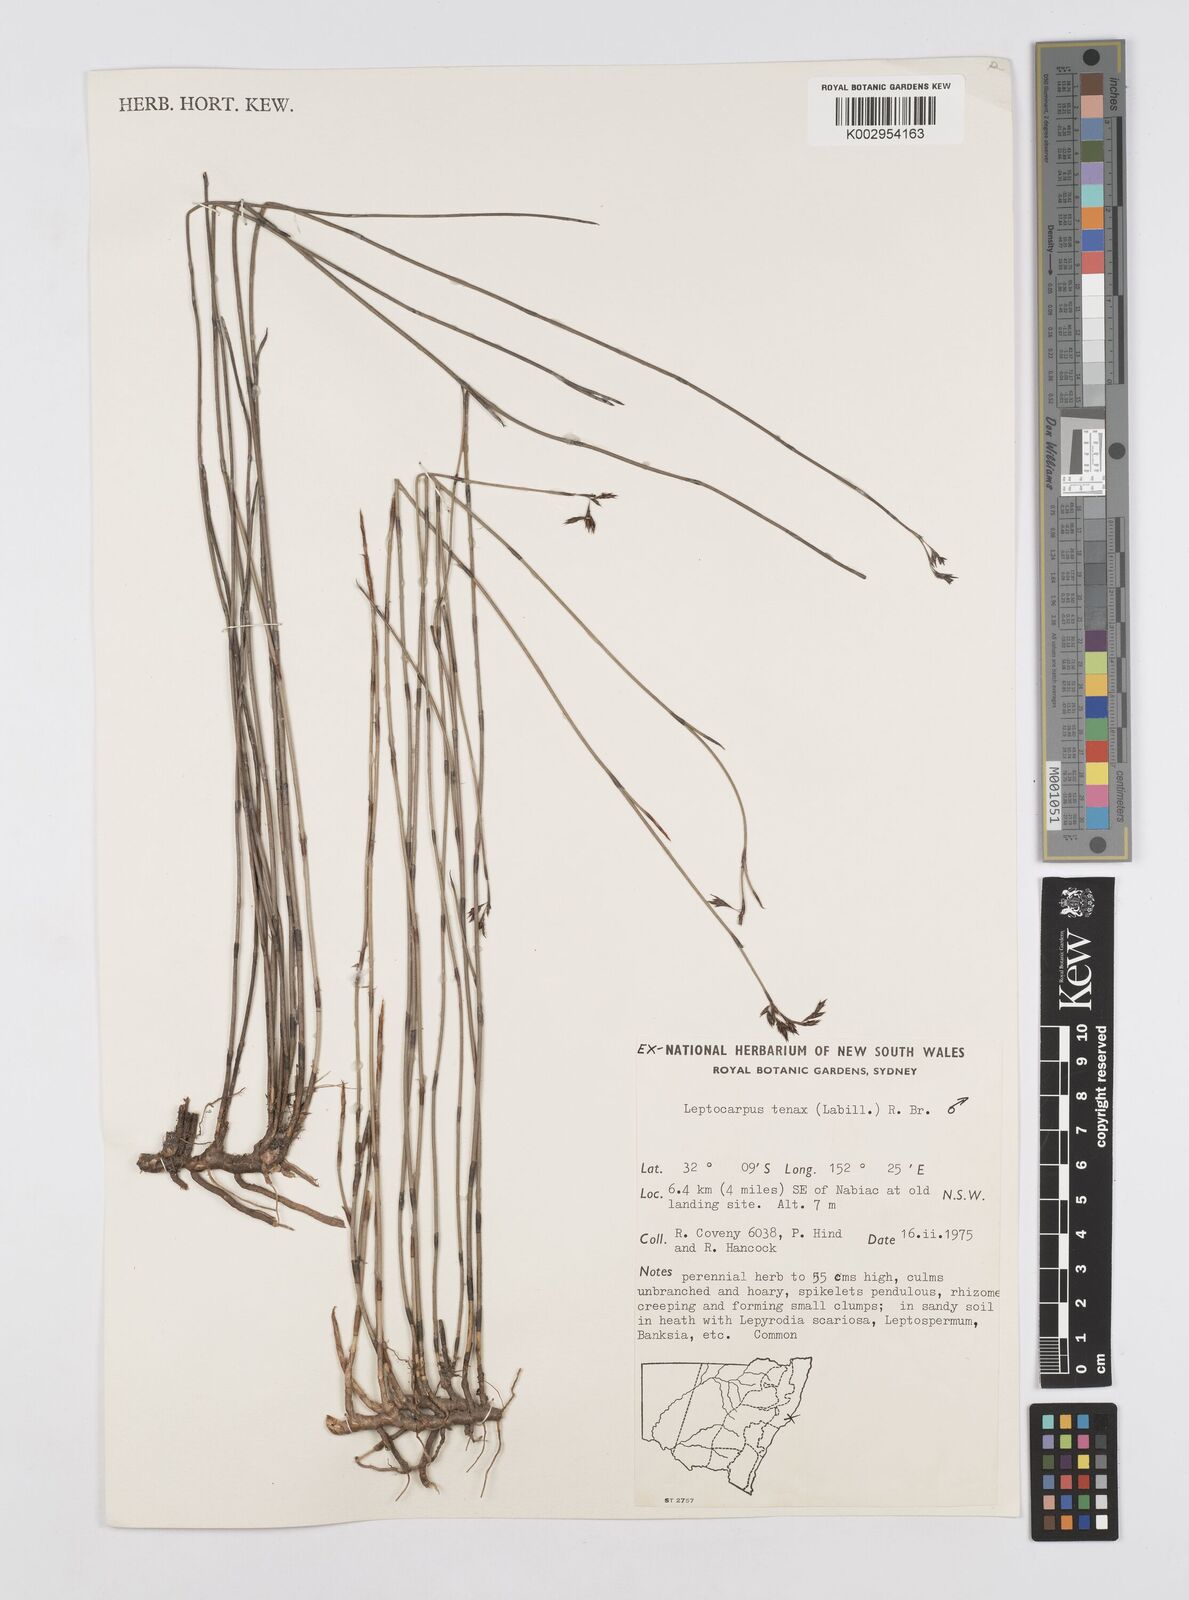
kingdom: Plantae
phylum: Tracheophyta
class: Liliopsida
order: Poales
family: Restionaceae
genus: Leptocarpus
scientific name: Leptocarpus tenax
